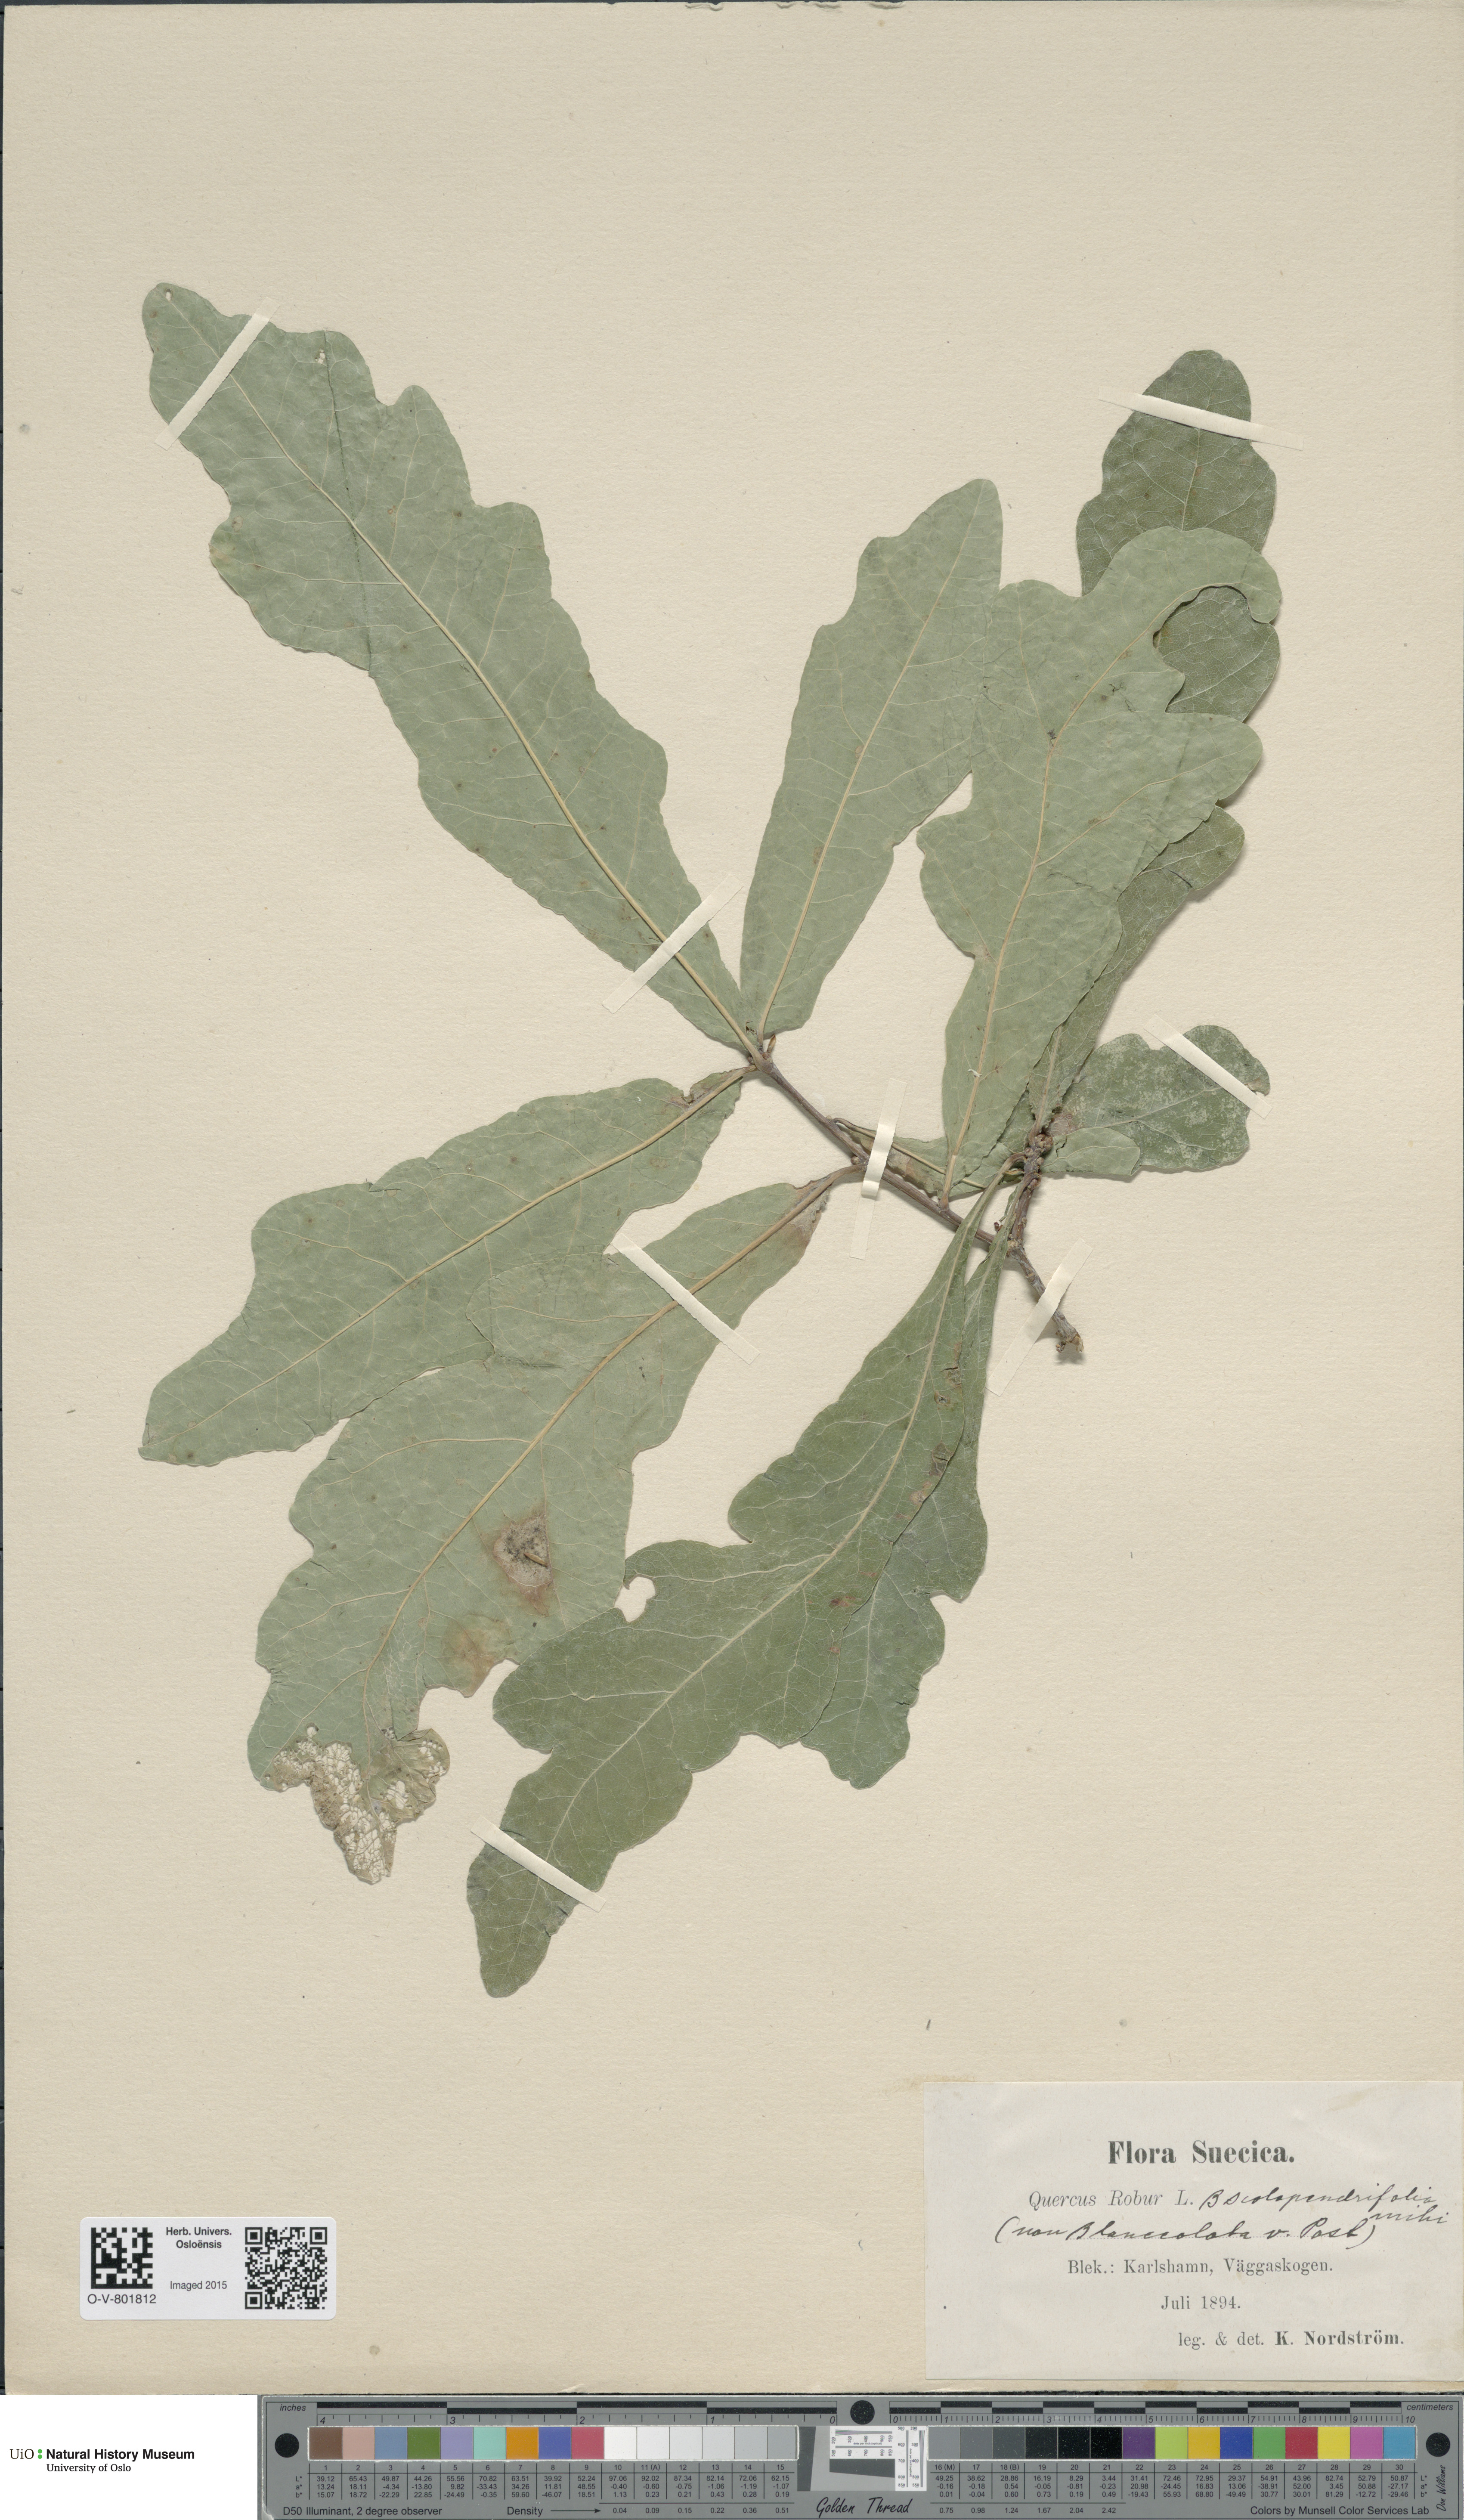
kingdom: Plantae
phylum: Tracheophyta
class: Magnoliopsida
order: Fagales
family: Fagaceae
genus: Quercus
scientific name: Quercus robur
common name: Pedunculate oak
